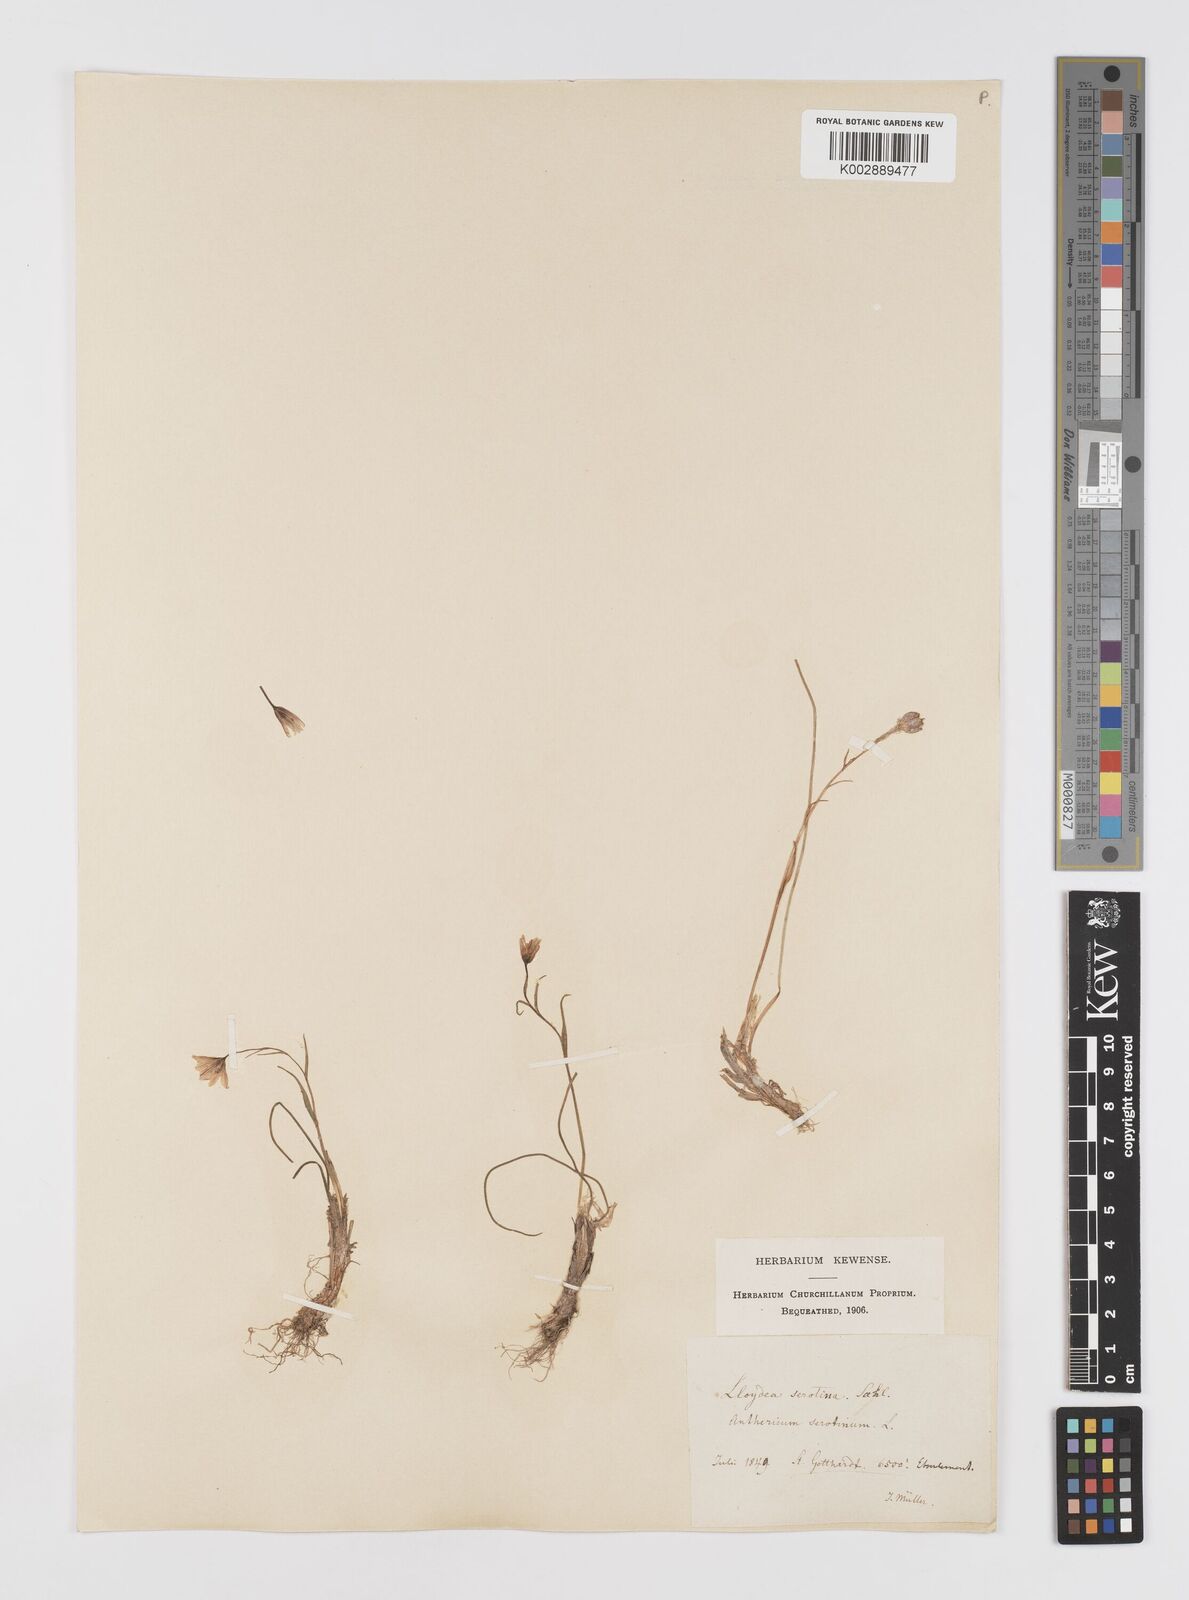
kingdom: Plantae
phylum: Tracheophyta
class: Liliopsida
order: Liliales
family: Liliaceae
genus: Gagea
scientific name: Gagea
